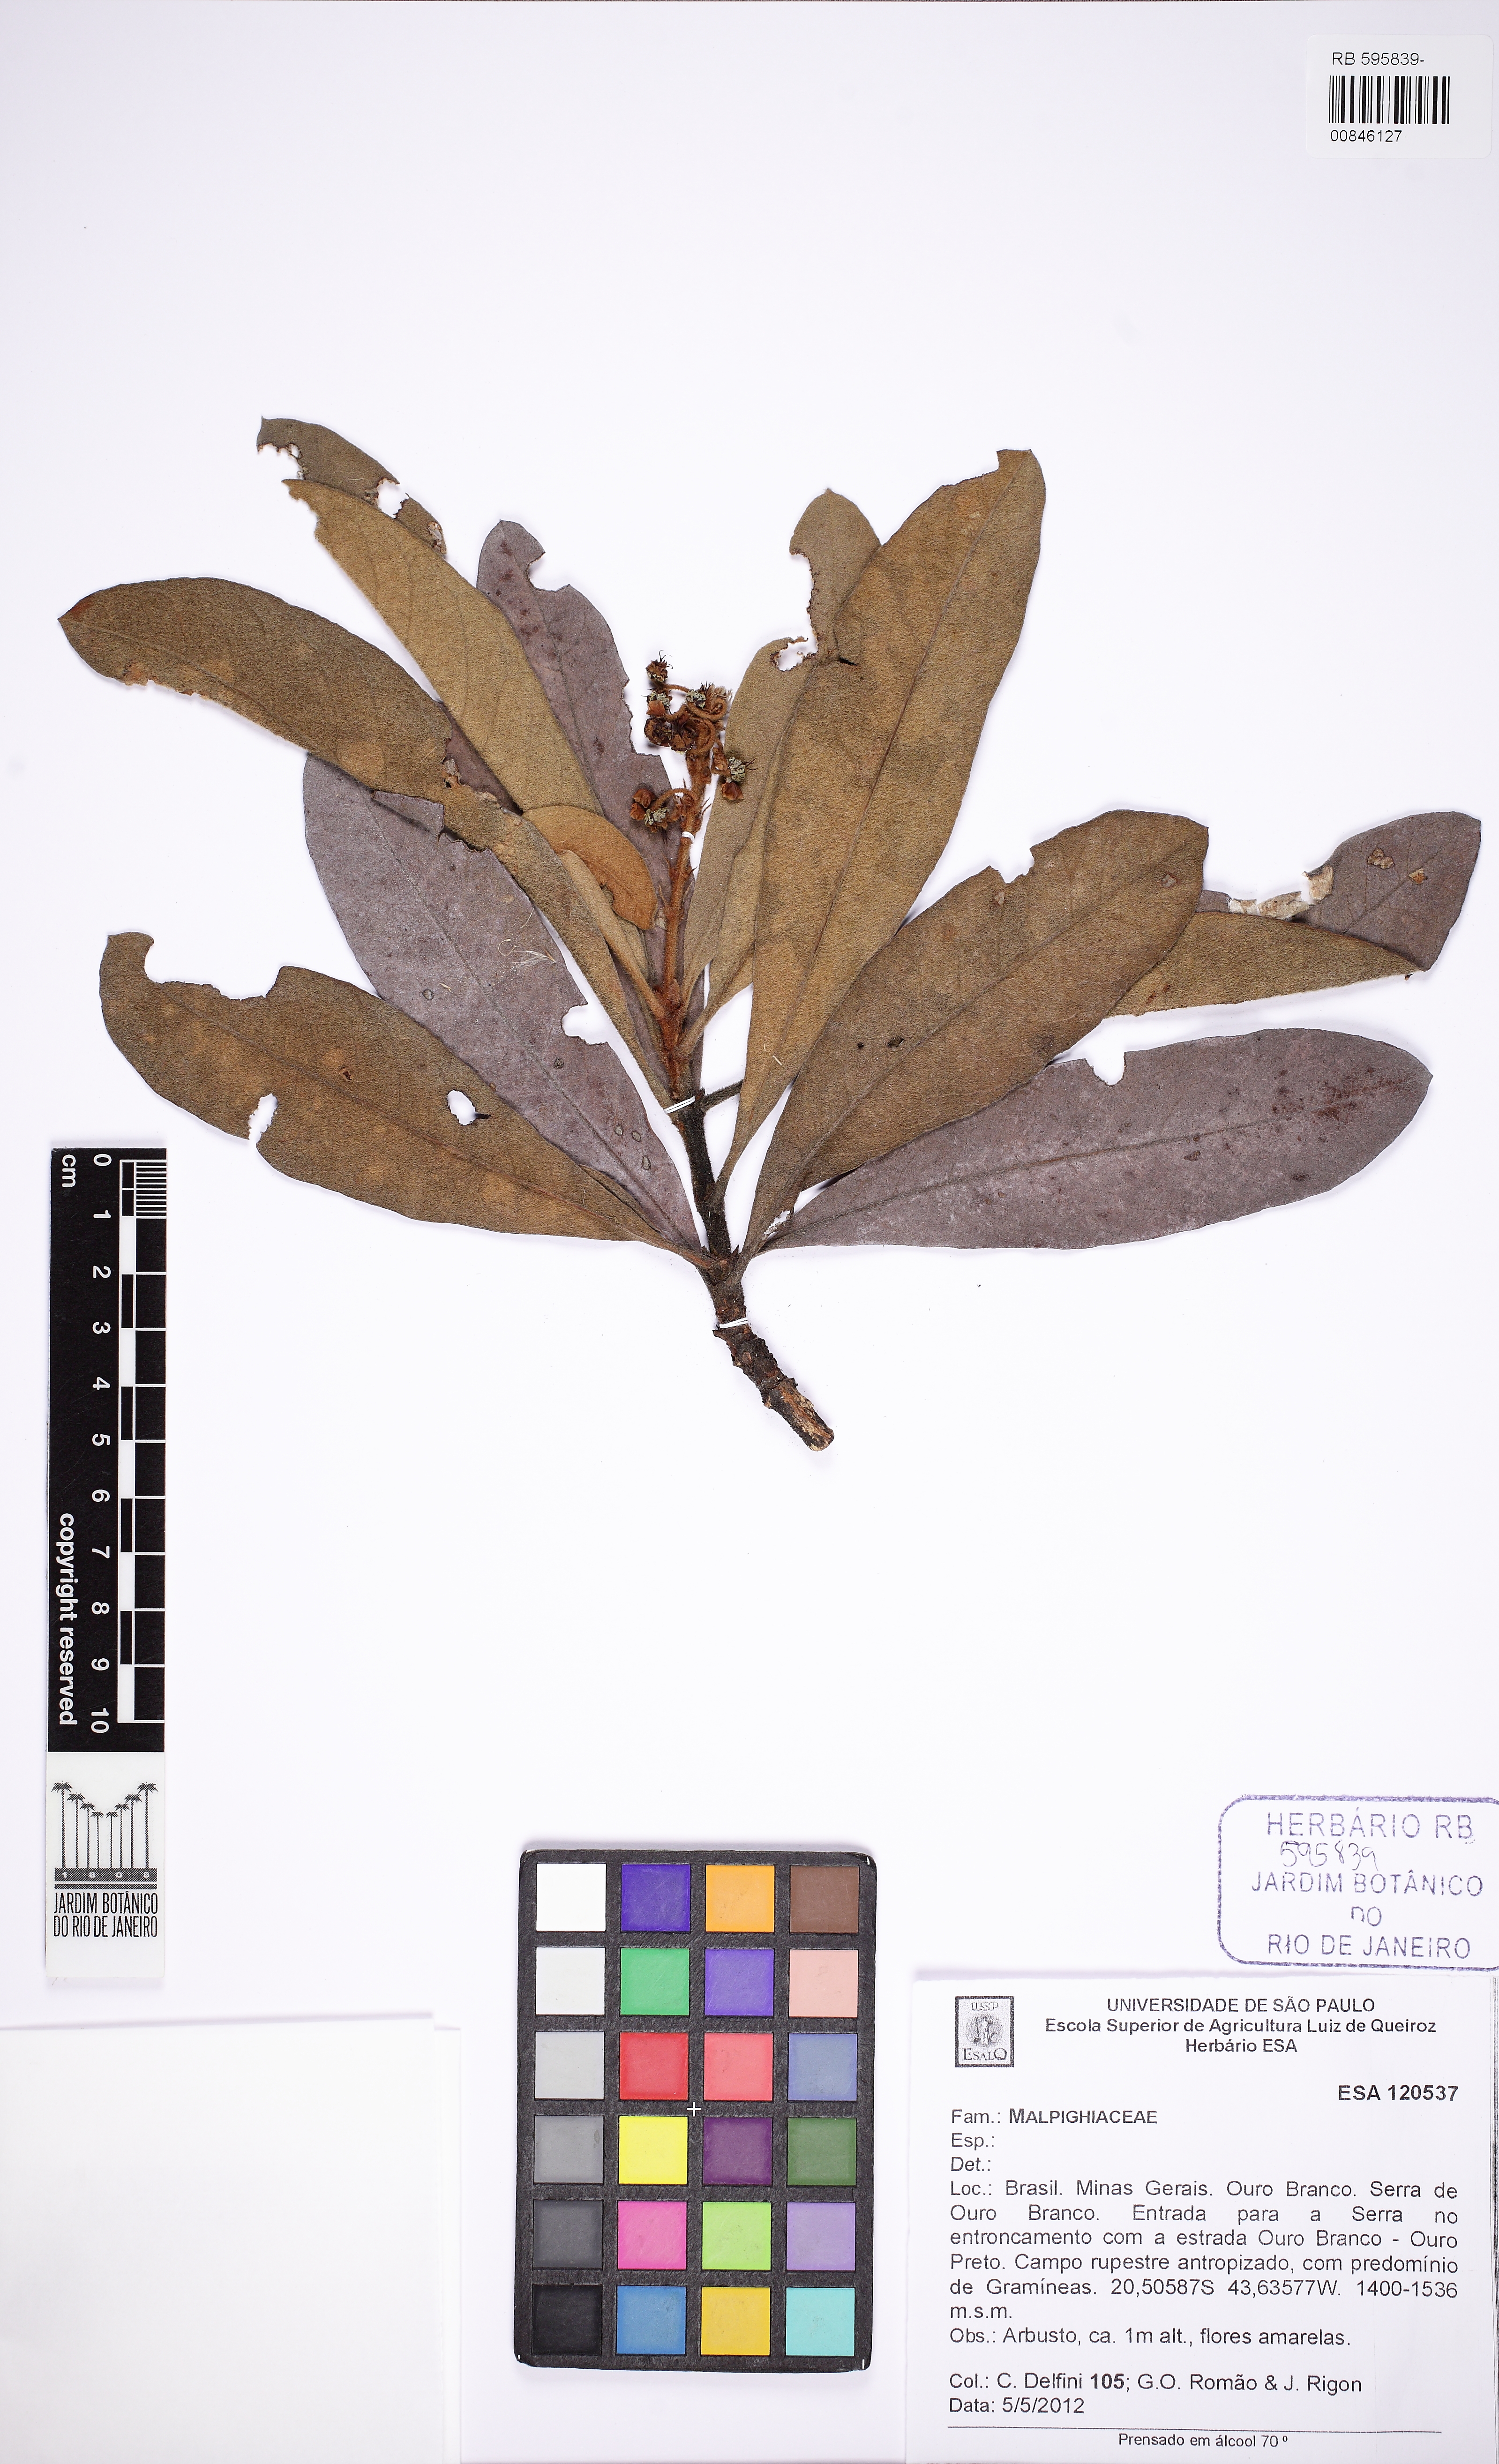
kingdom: Plantae
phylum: Tracheophyta
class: Magnoliopsida
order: Malpighiales
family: Malpighiaceae
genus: Byrsonima
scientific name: Byrsonima
